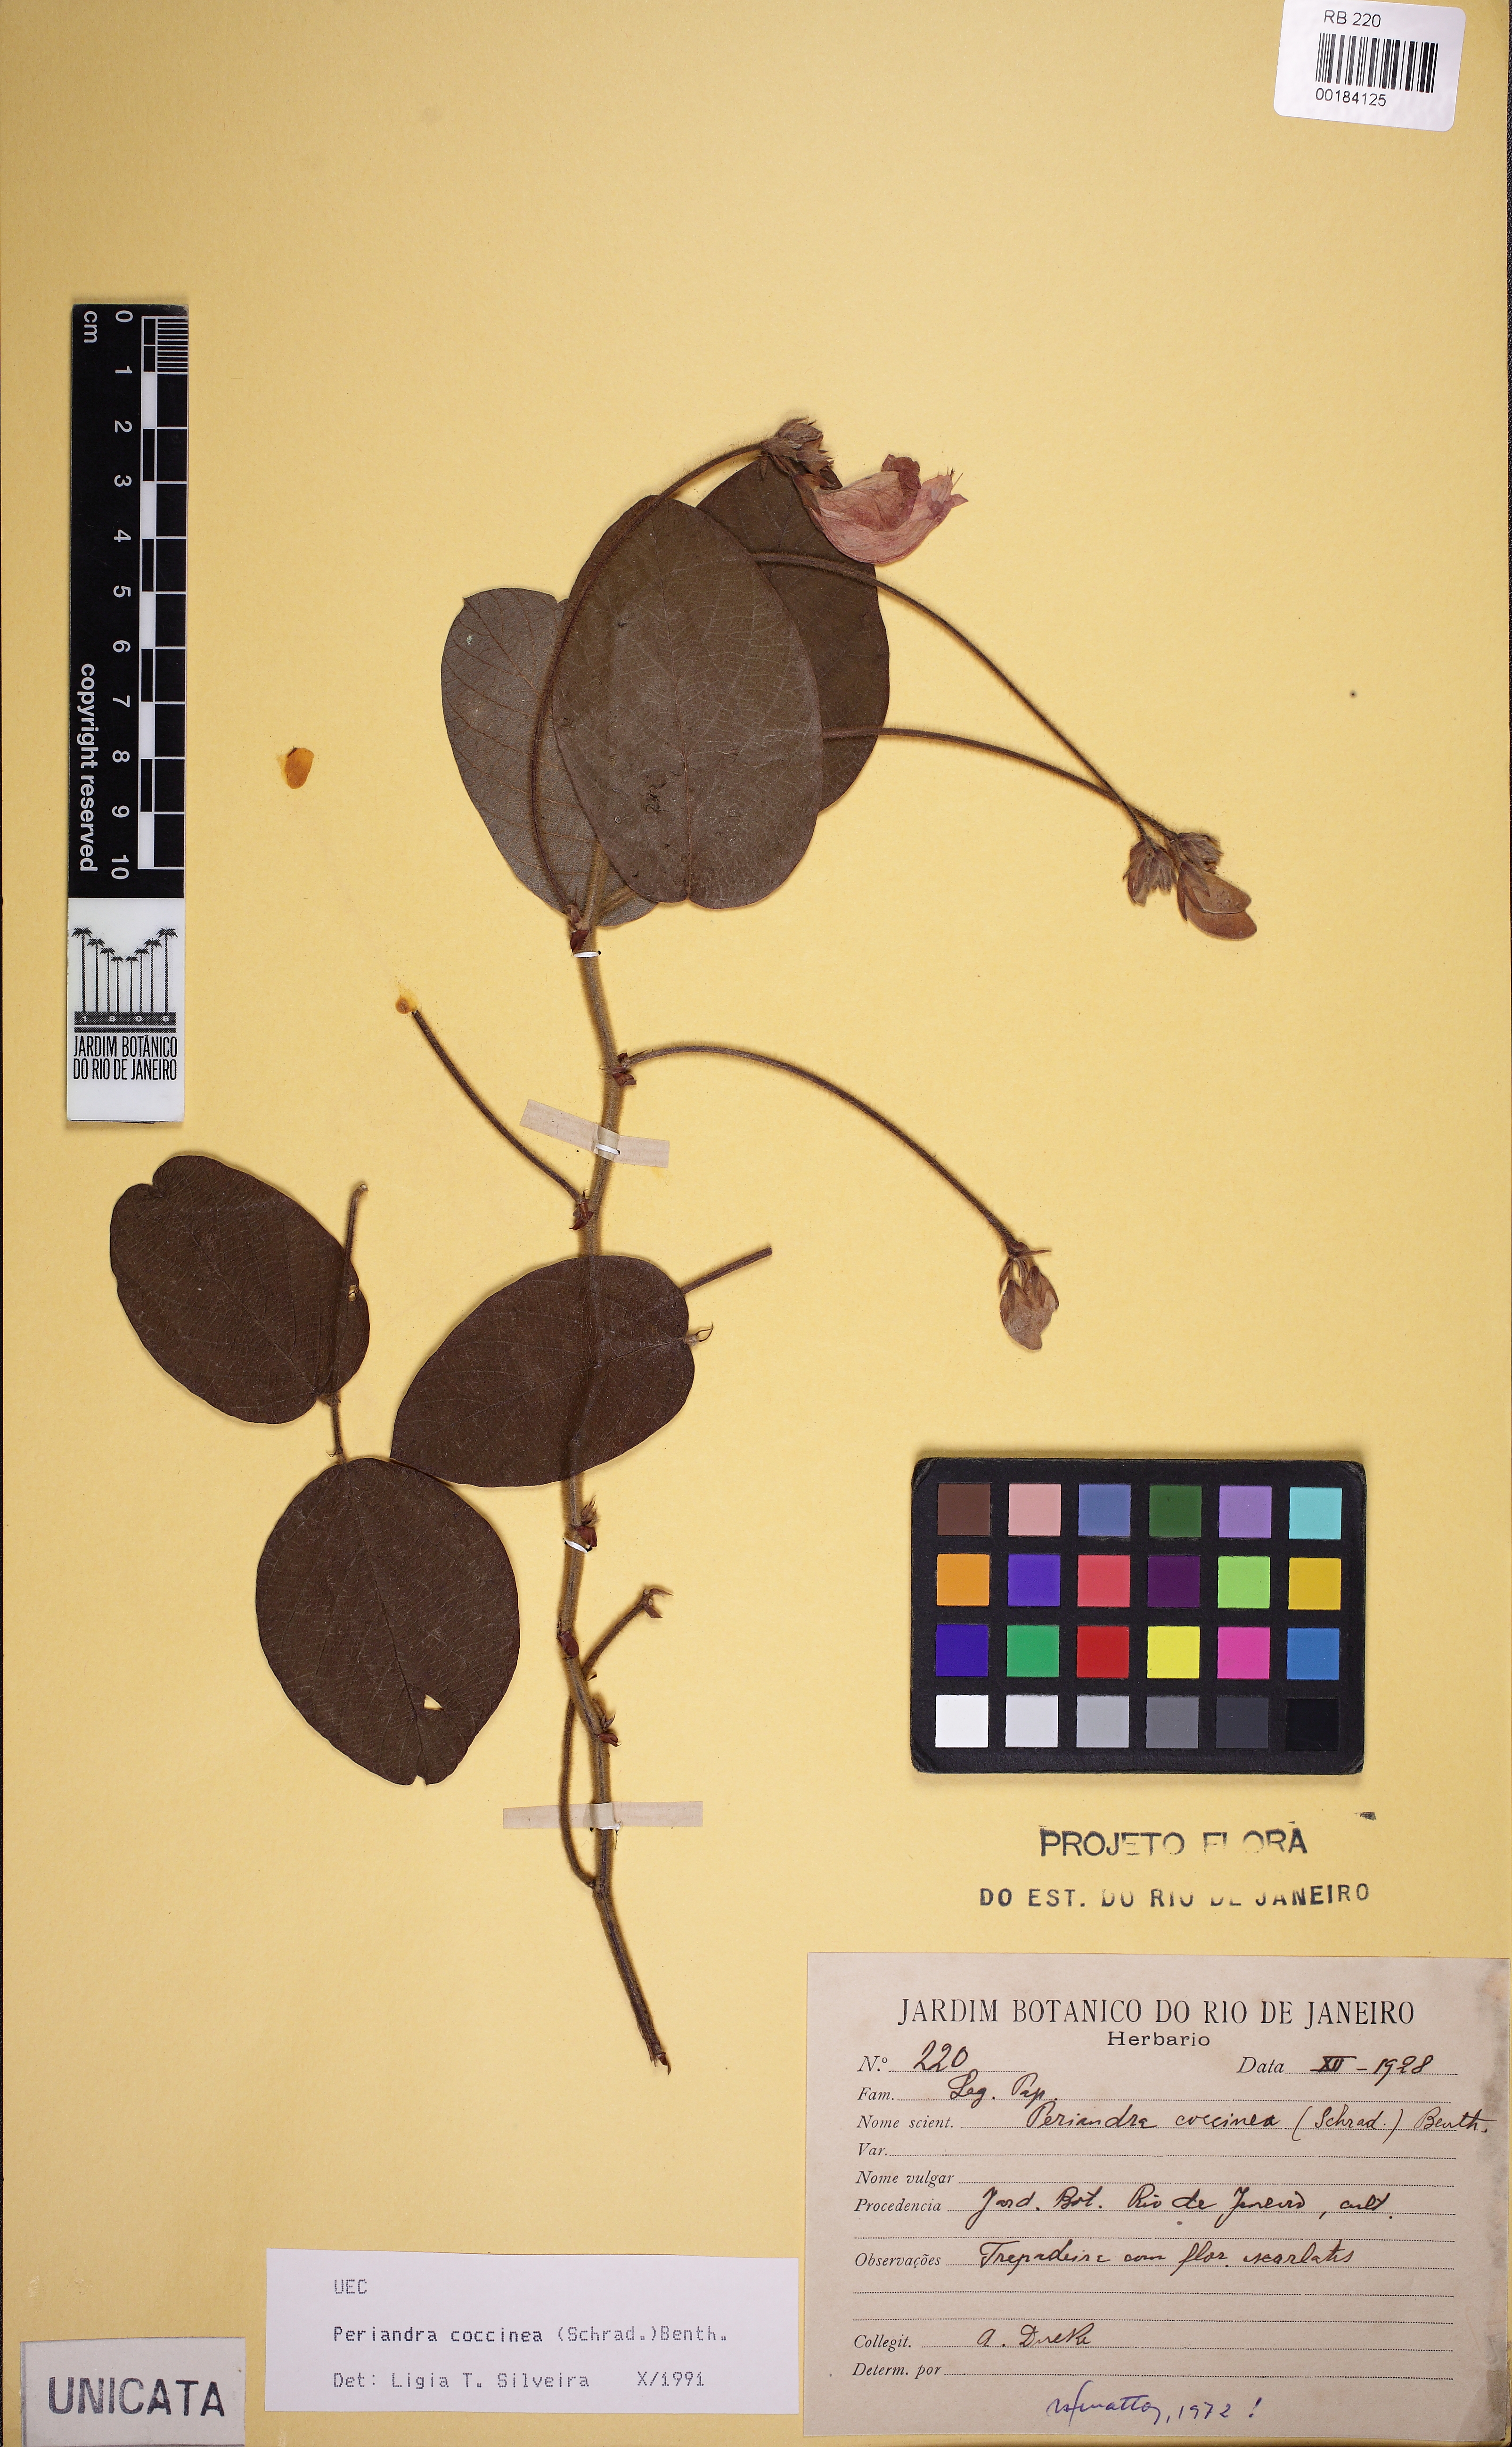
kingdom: Plantae
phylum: Tracheophyta
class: Magnoliopsida
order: Fabales
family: Fabaceae
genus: Periandra
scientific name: Periandra coccinea
